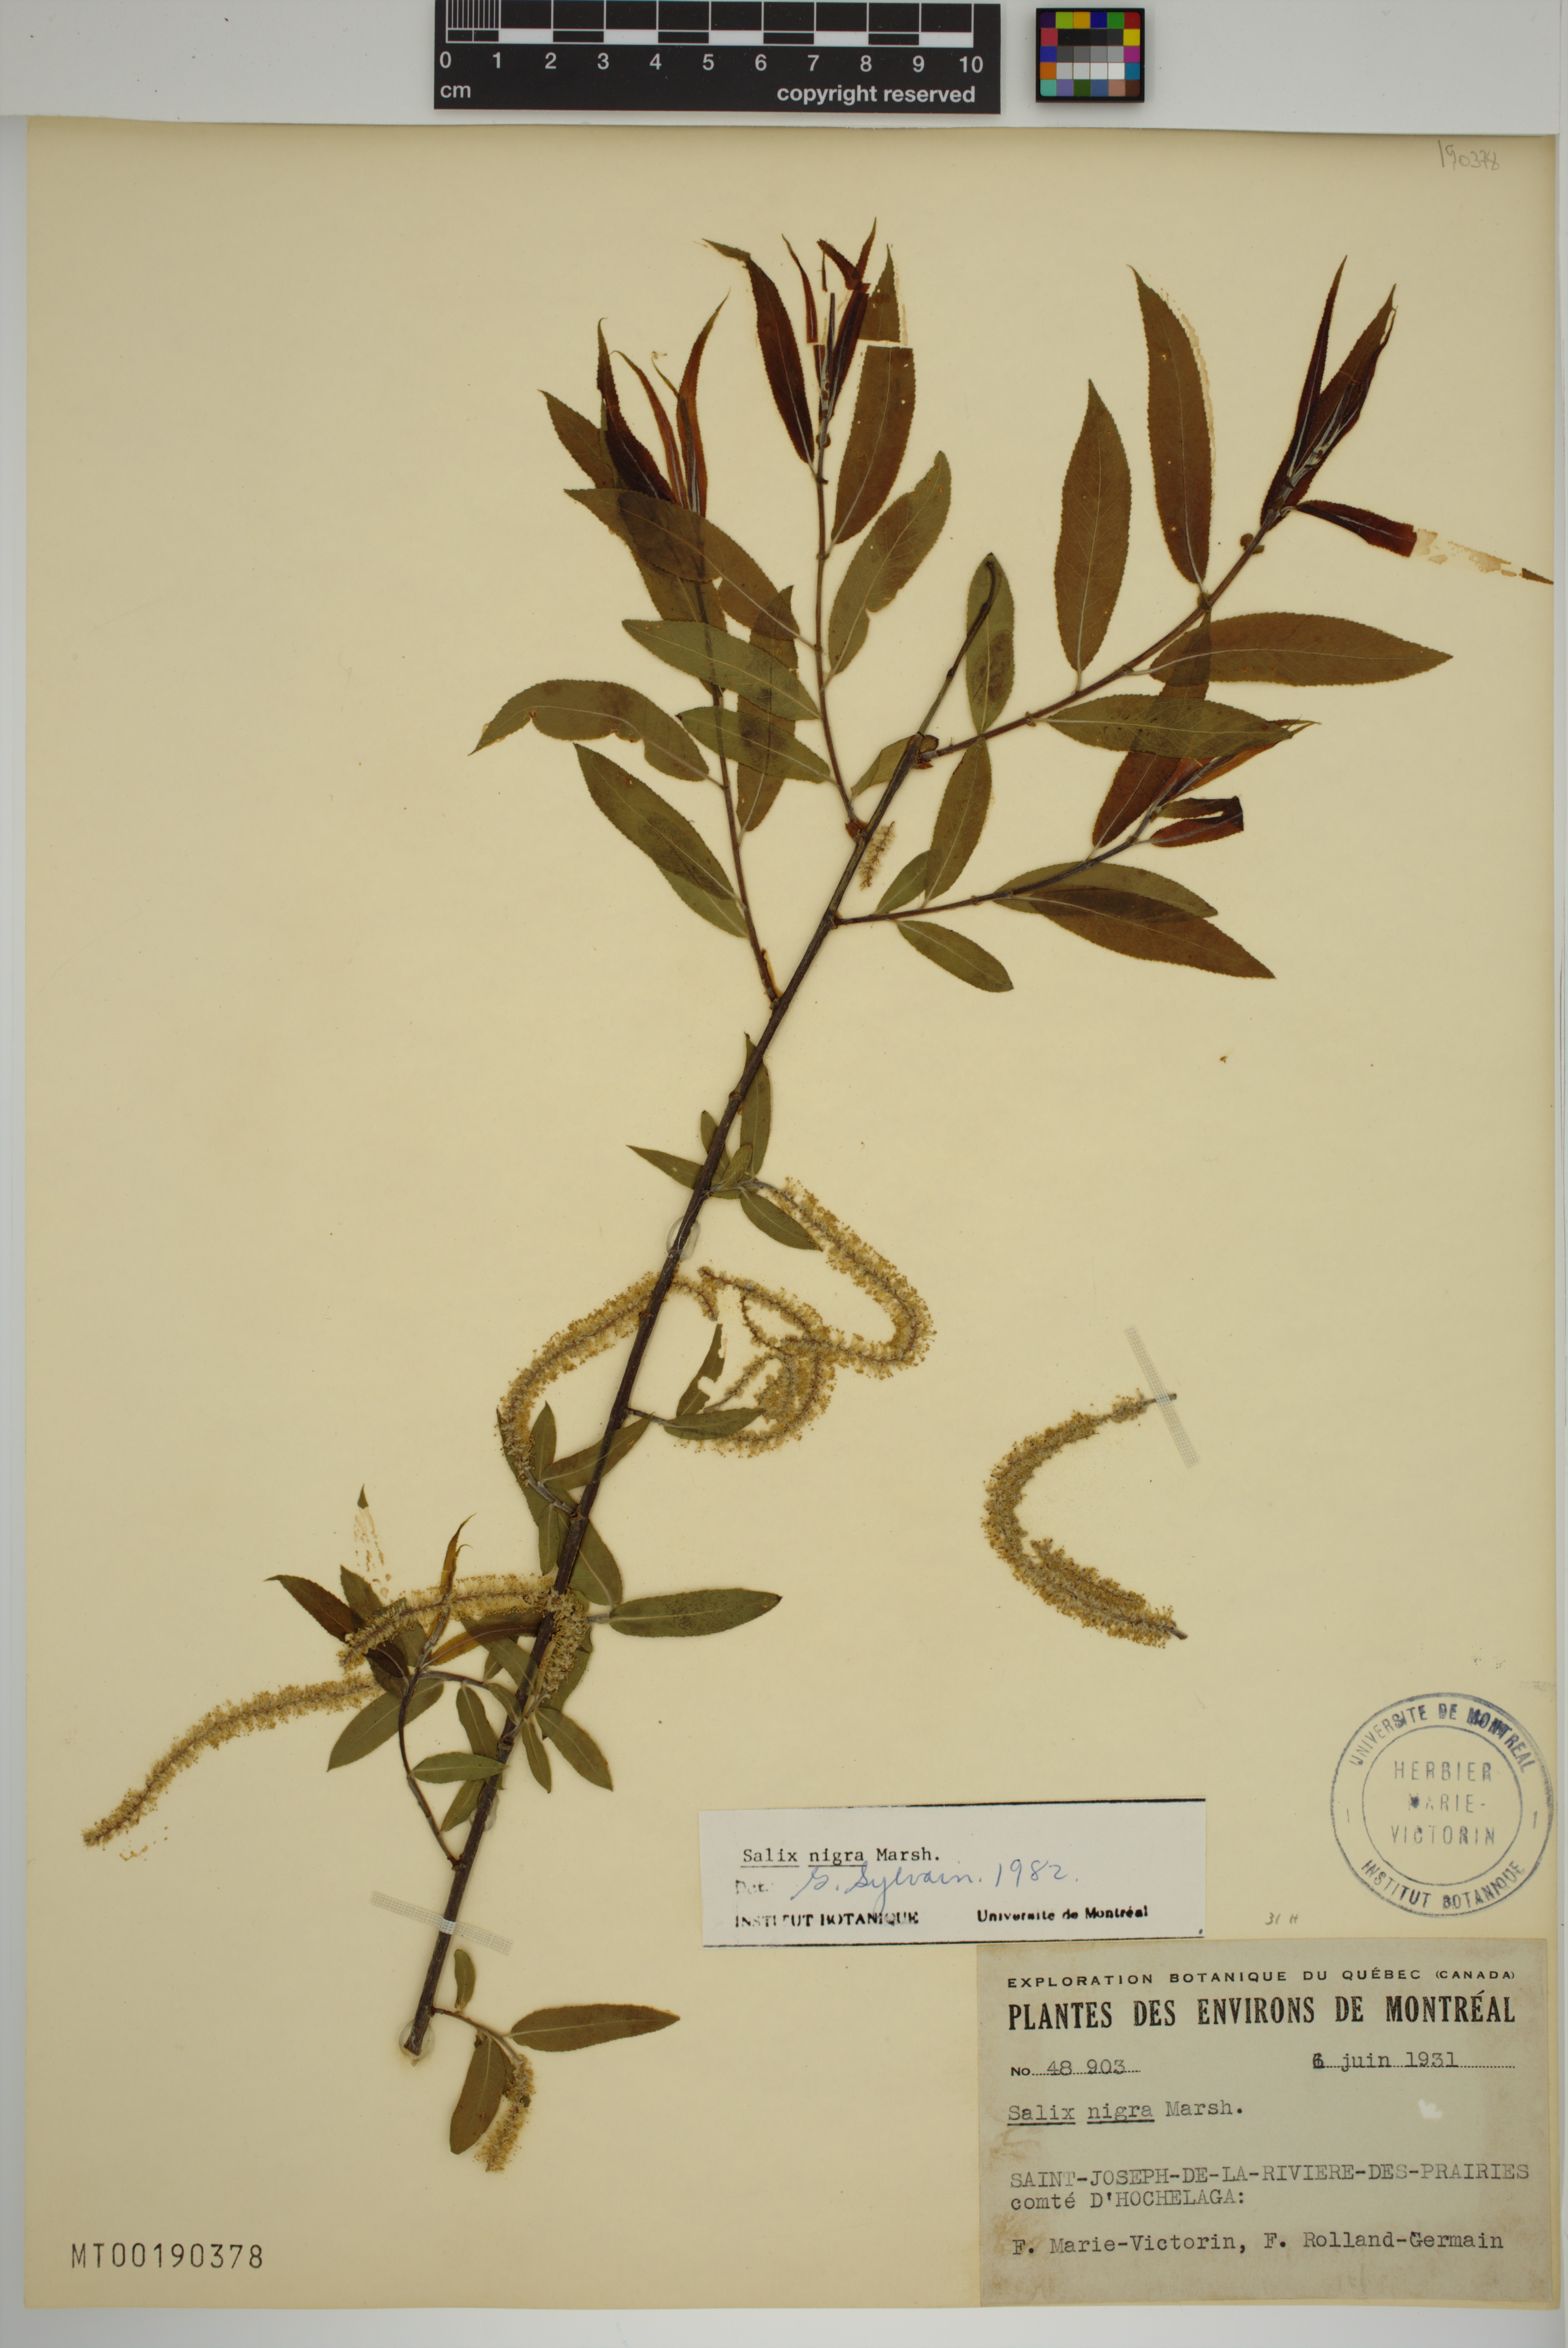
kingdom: Plantae
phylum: Tracheophyta
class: Magnoliopsida
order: Malpighiales
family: Salicaceae
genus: Salix
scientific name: Salix nigra
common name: Black willow
